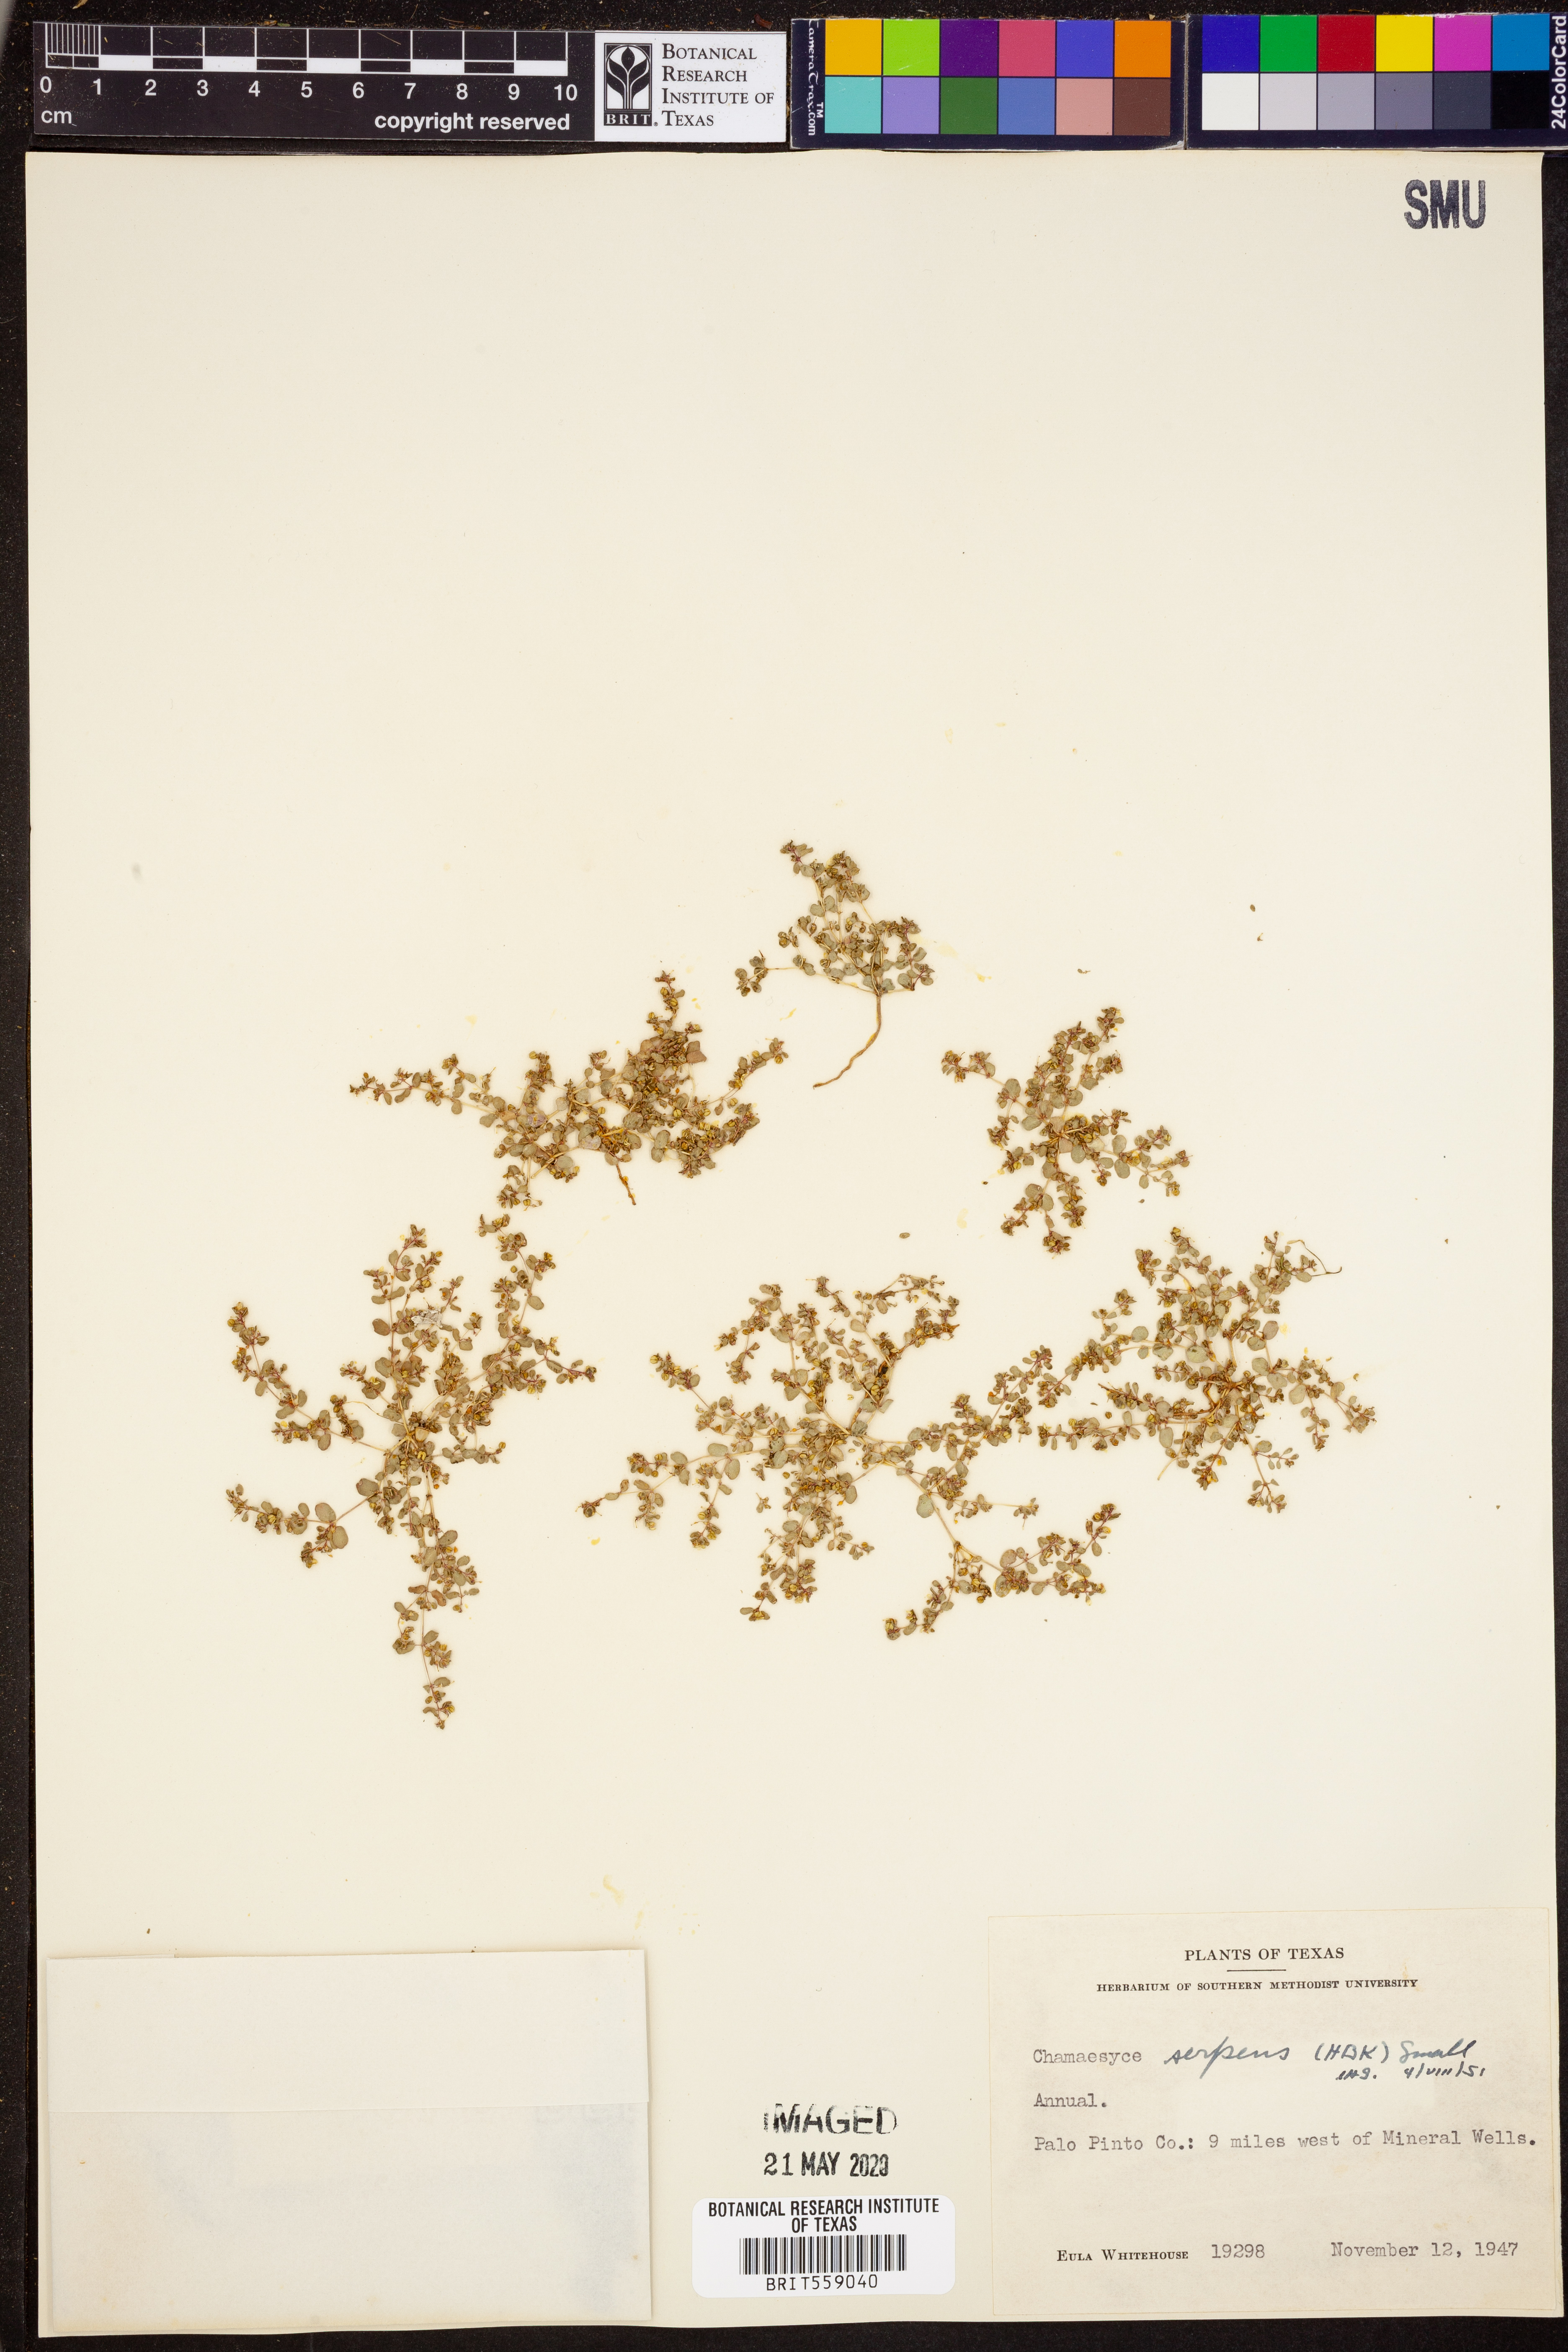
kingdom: Plantae
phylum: Tracheophyta
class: Magnoliopsida
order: Malpighiales
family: Euphorbiaceae
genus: Euphorbia
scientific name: Euphorbia serpens
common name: Matted sandmat
